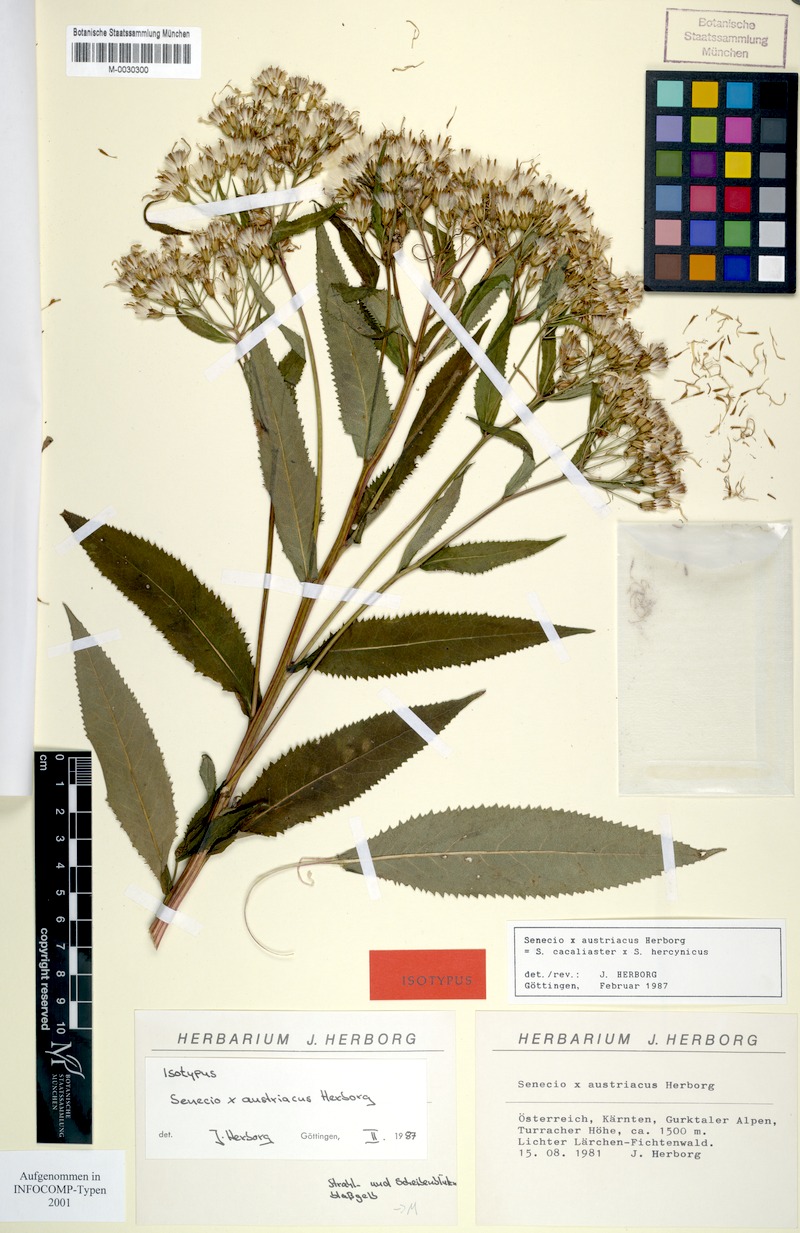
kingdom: Plantae
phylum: Tracheophyta
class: Magnoliopsida
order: Asterales
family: Asteraceae
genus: Senecio
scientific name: Senecio hercynicus
